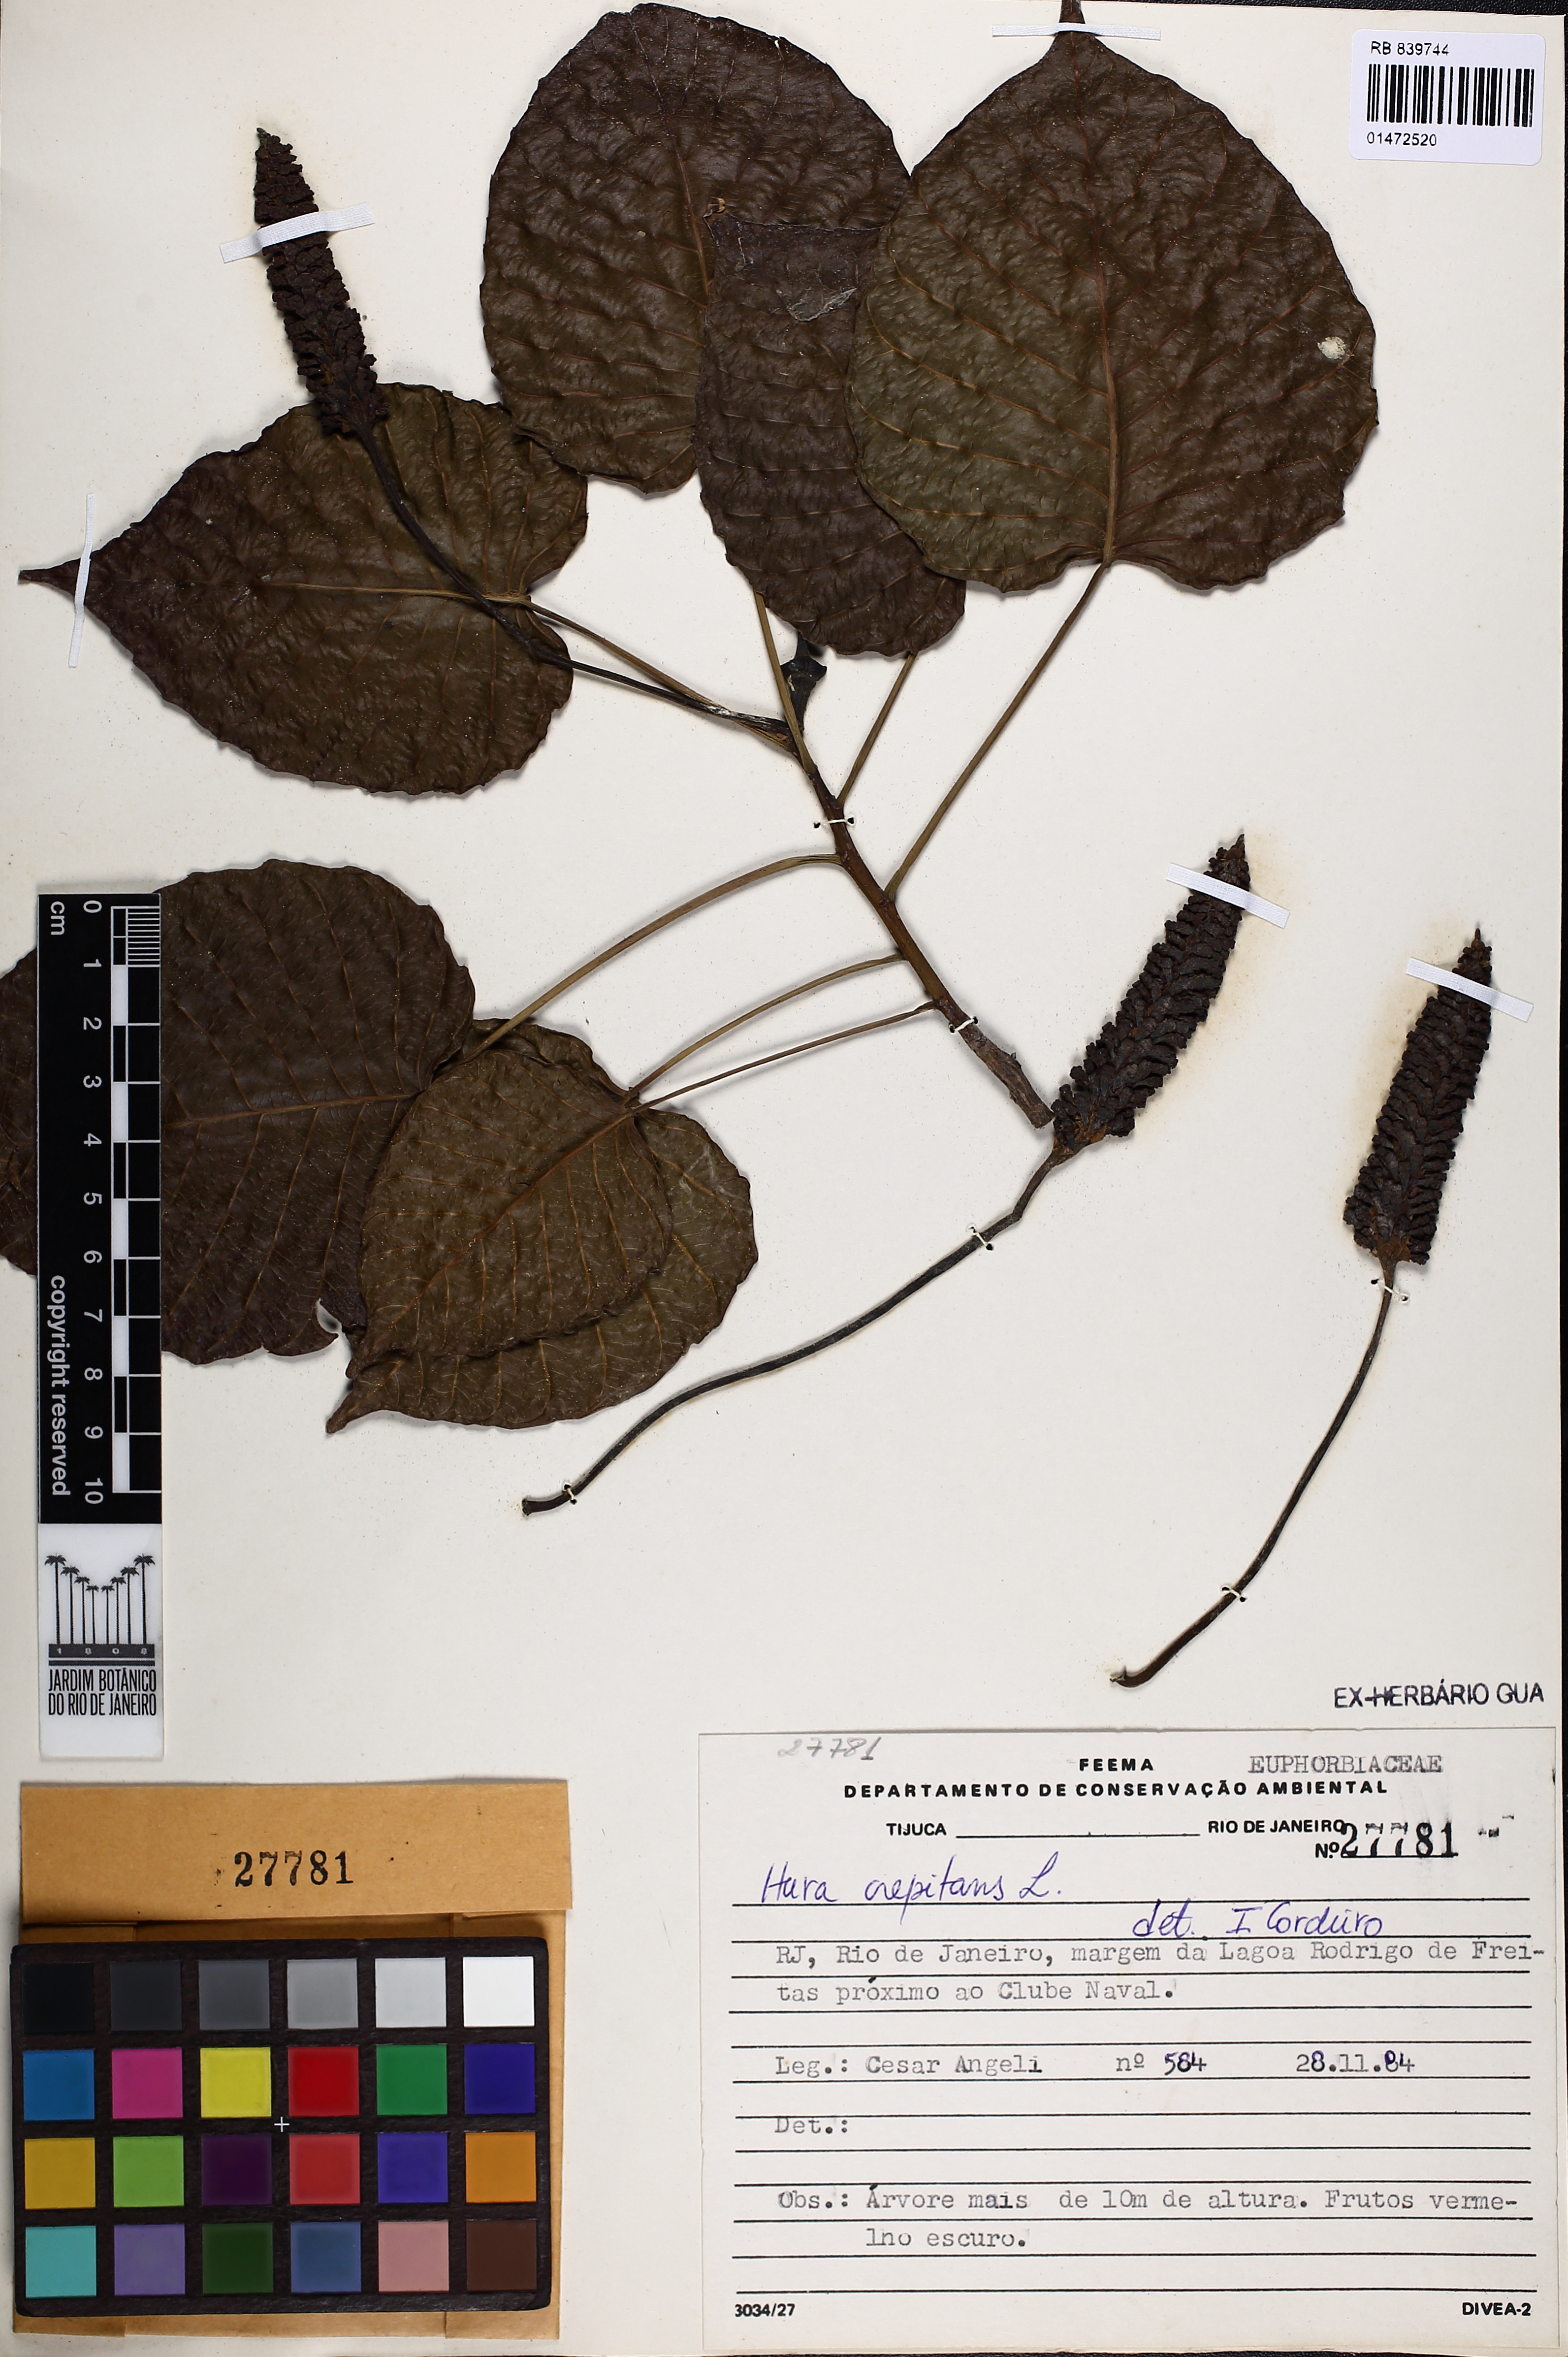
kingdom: Plantae
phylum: Tracheophyta
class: Magnoliopsida
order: Malpighiales
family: Euphorbiaceae
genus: Hura
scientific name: Hura crepitans
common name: Sandboxtree
